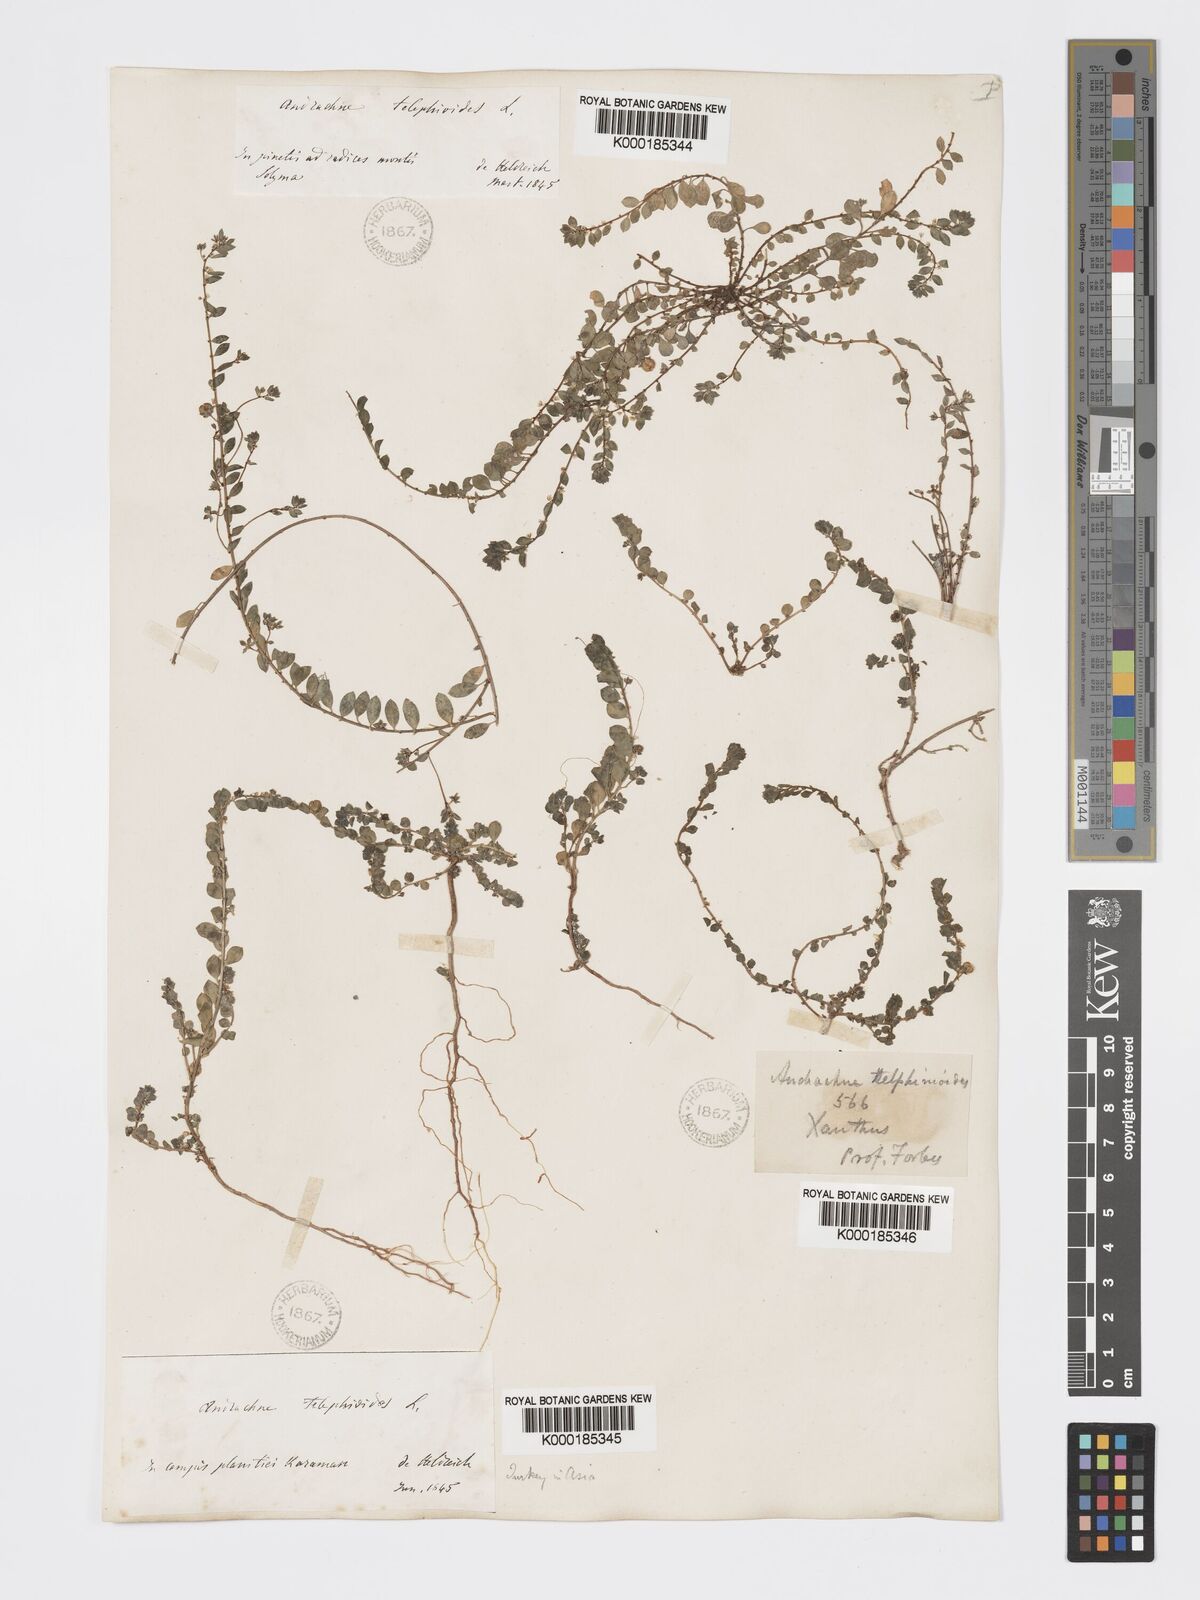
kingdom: Plantae
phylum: Tracheophyta
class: Magnoliopsida
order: Malpighiales
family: Phyllanthaceae
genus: Andrachne
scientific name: Andrachne telephioides
